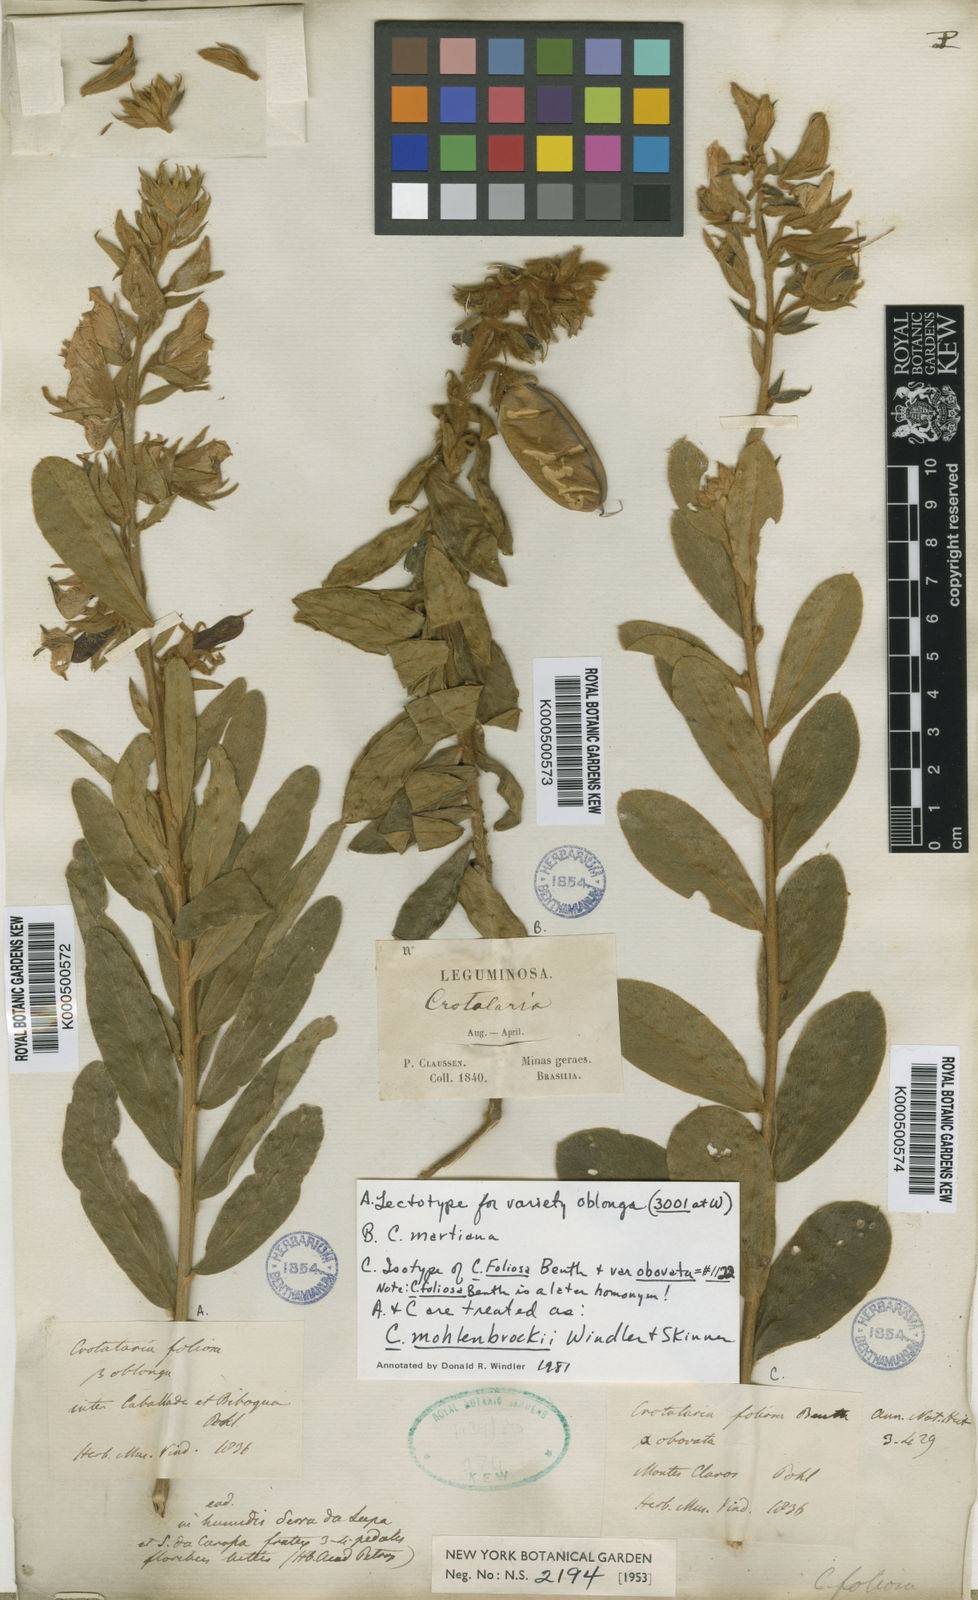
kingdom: Plantae
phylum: Tracheophyta
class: Magnoliopsida
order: Fabales
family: Fabaceae
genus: Crotalaria
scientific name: Crotalaria martiana
